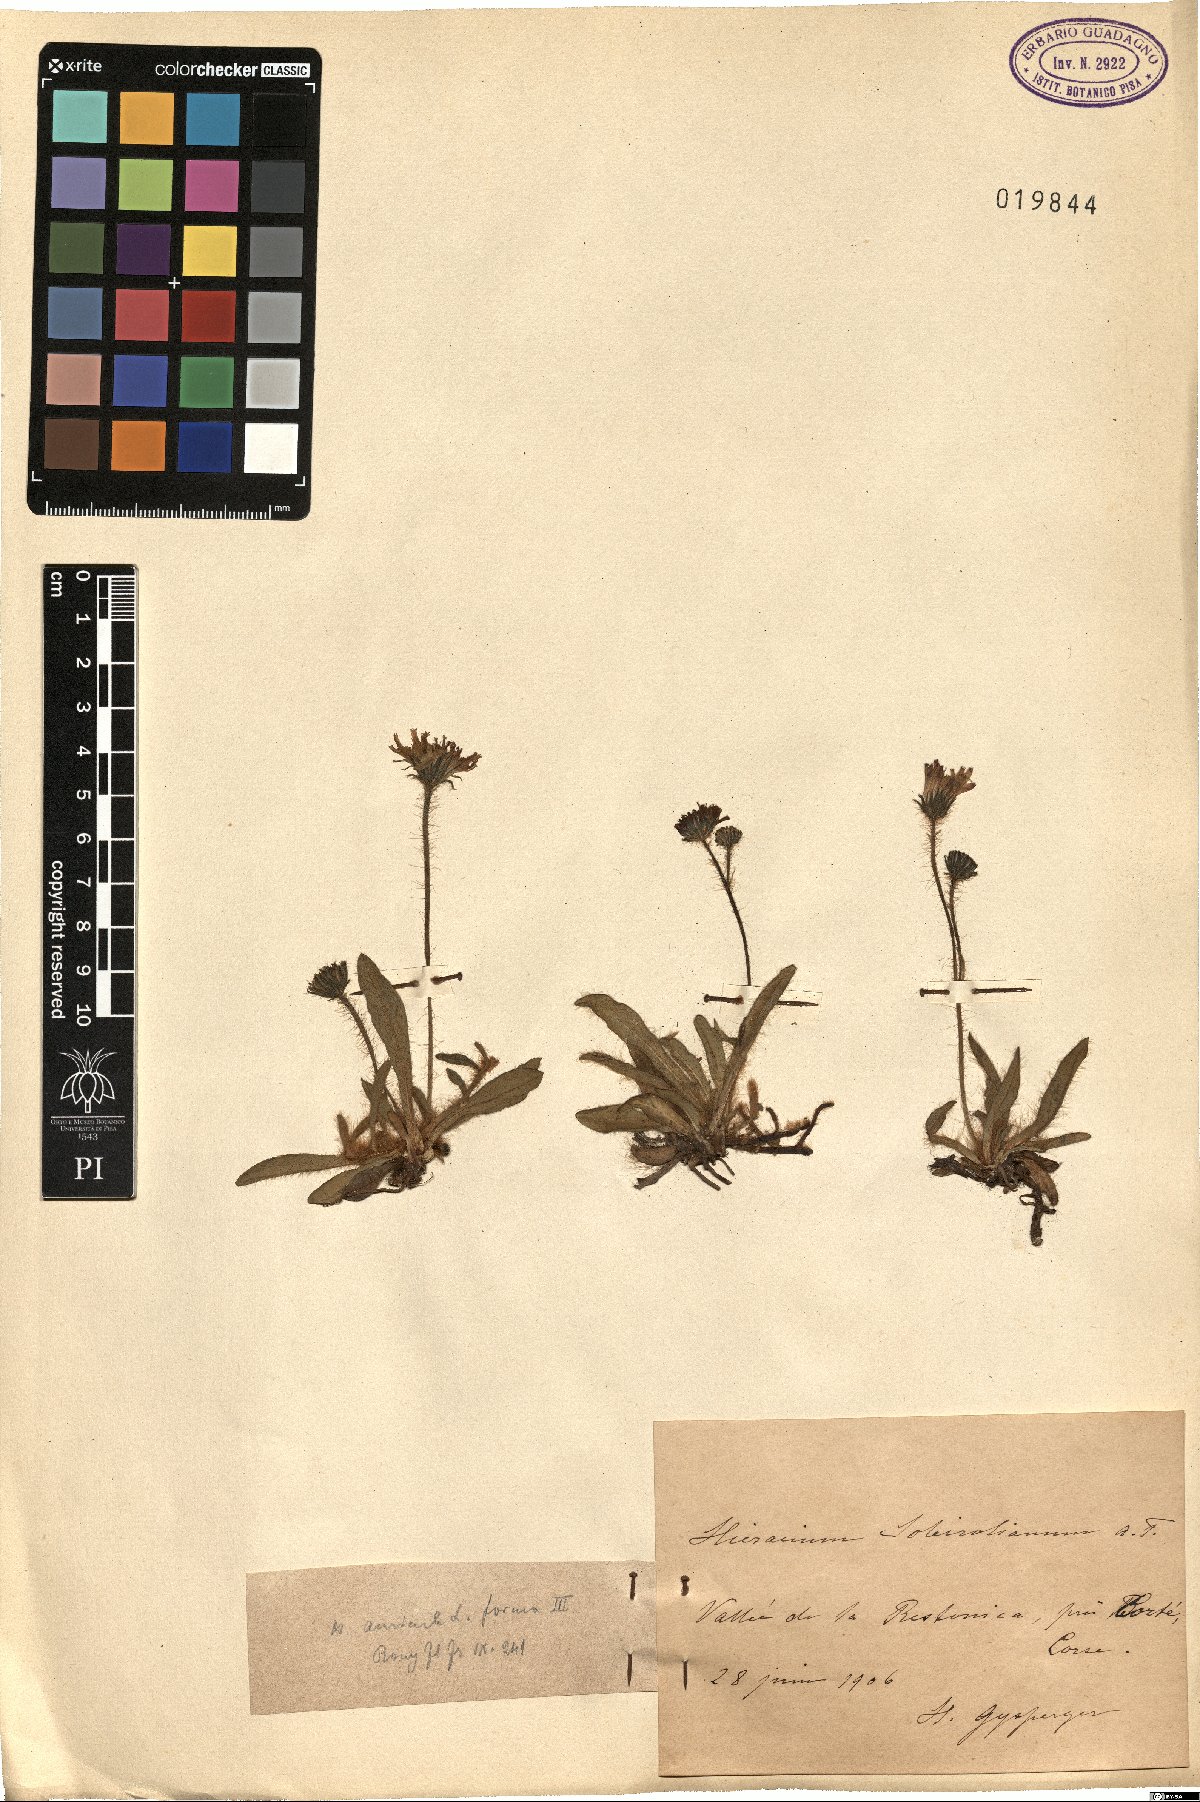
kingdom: Plantae
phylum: Tracheophyta
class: Magnoliopsida
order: Asterales
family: Asteraceae
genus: Pilosella
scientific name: Pilosella floribunda
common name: Glaucous hawkweed
